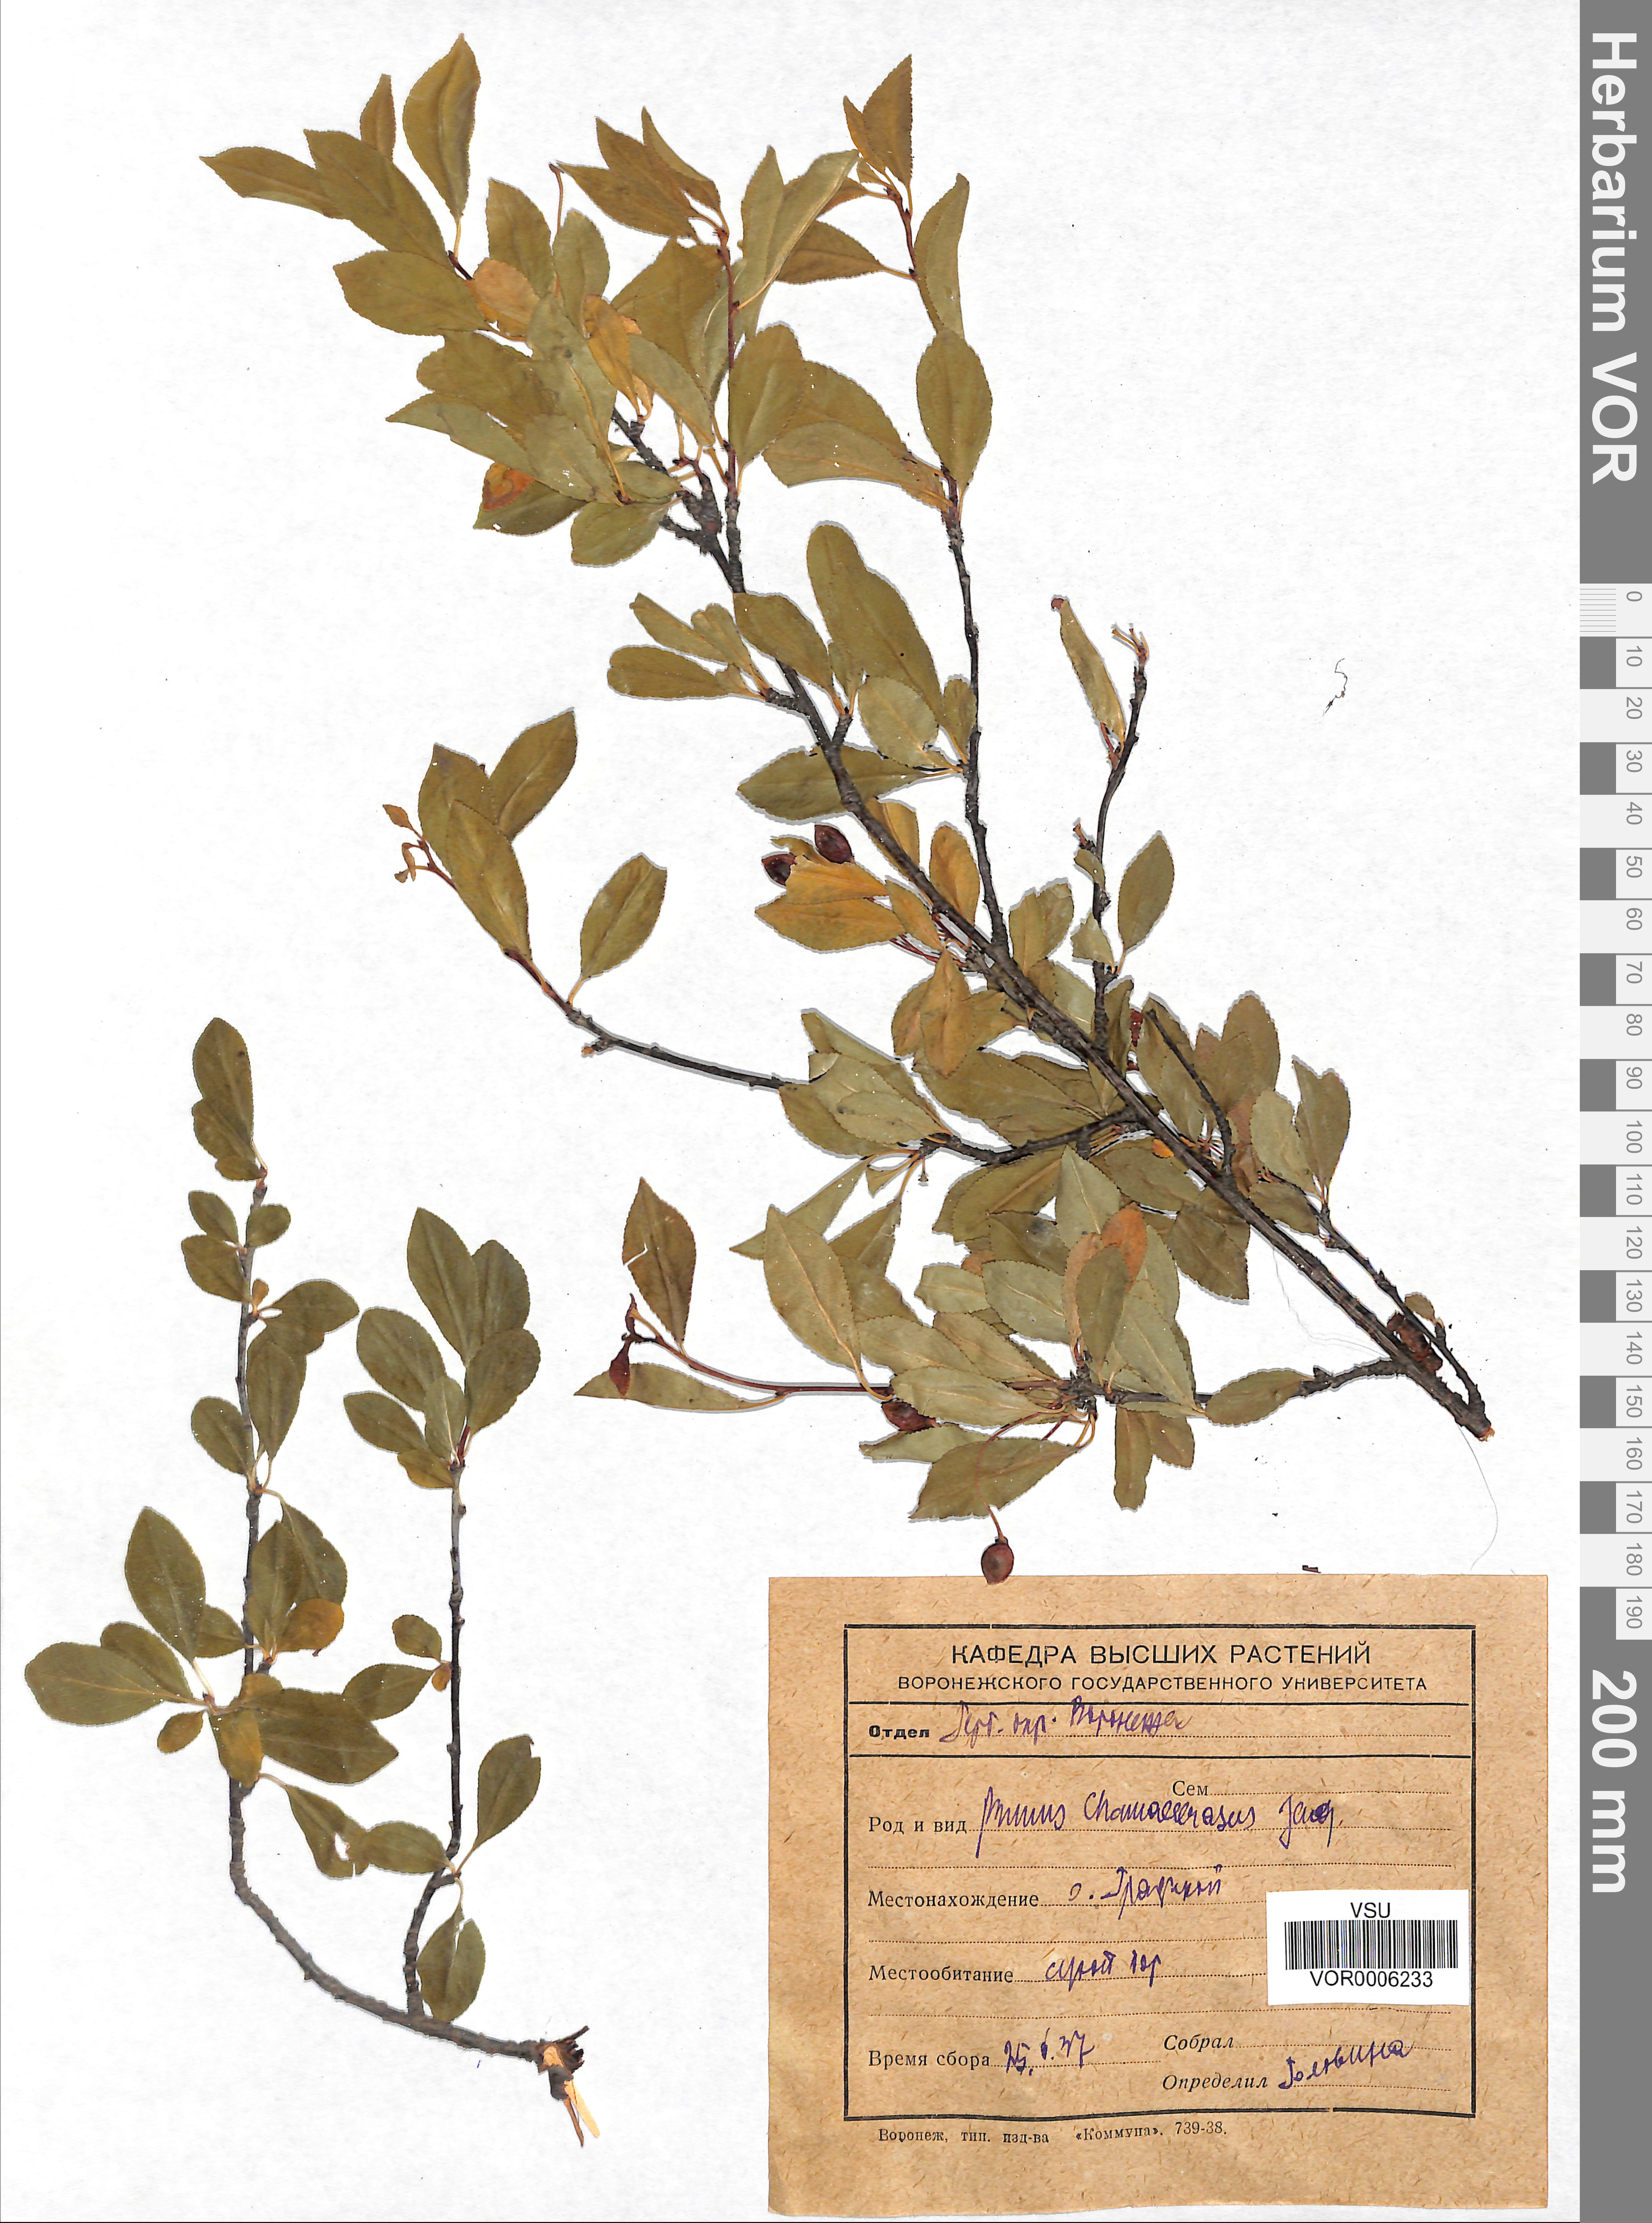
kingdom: Plantae
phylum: Tracheophyta
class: Magnoliopsida
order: Rosales
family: Rosaceae
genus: Prunus
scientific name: Prunus fruticosa
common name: European dwarf cherry
